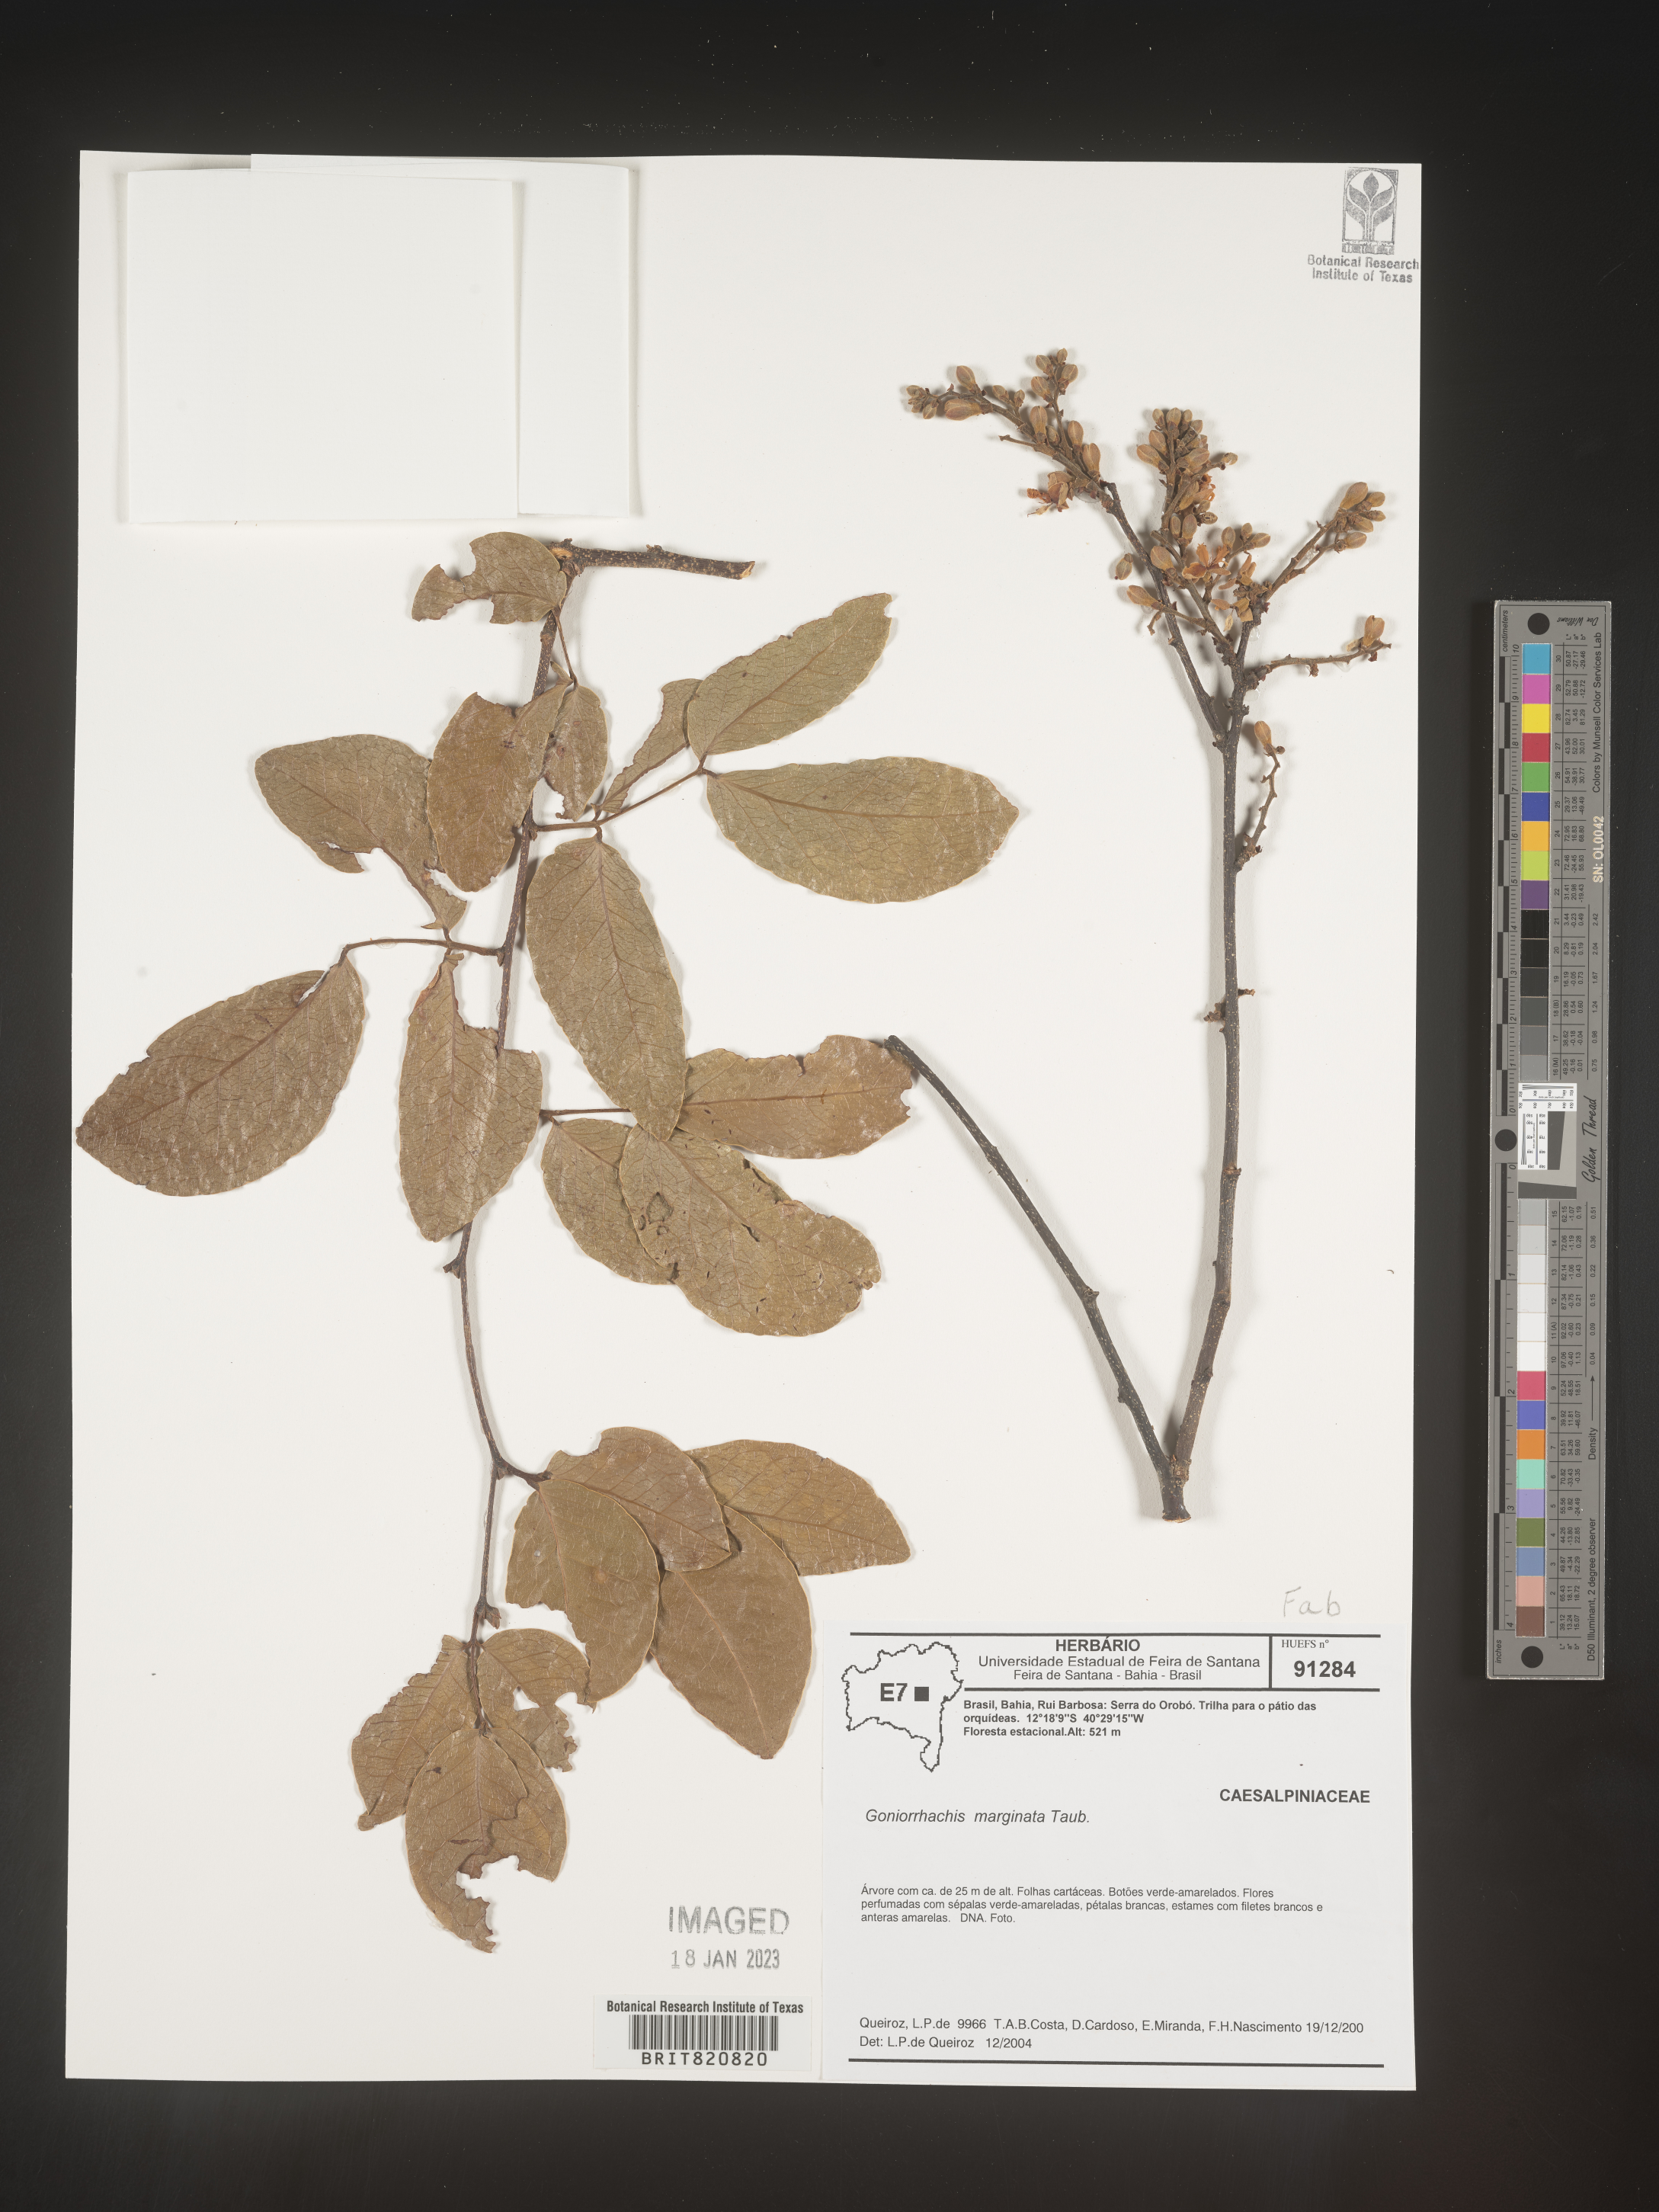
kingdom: Plantae
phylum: Tracheophyta
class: Magnoliopsida
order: Fabales
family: Fabaceae
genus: Goniorrhachis
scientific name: Goniorrhachis
